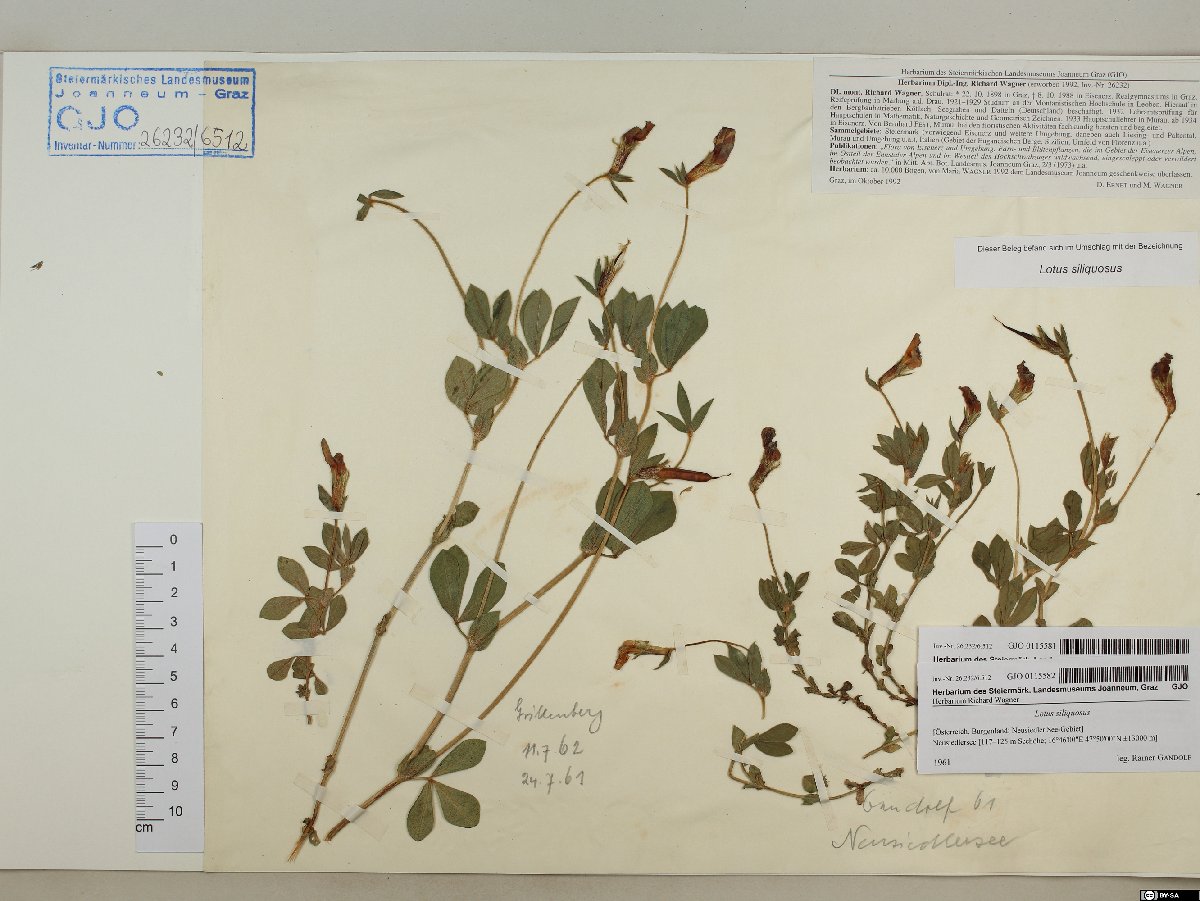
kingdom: Plantae
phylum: Tracheophyta
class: Magnoliopsida
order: Fabales
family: Fabaceae
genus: Lathyrus
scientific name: Lathyrus inconspicuus
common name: Inconspicuous pea
